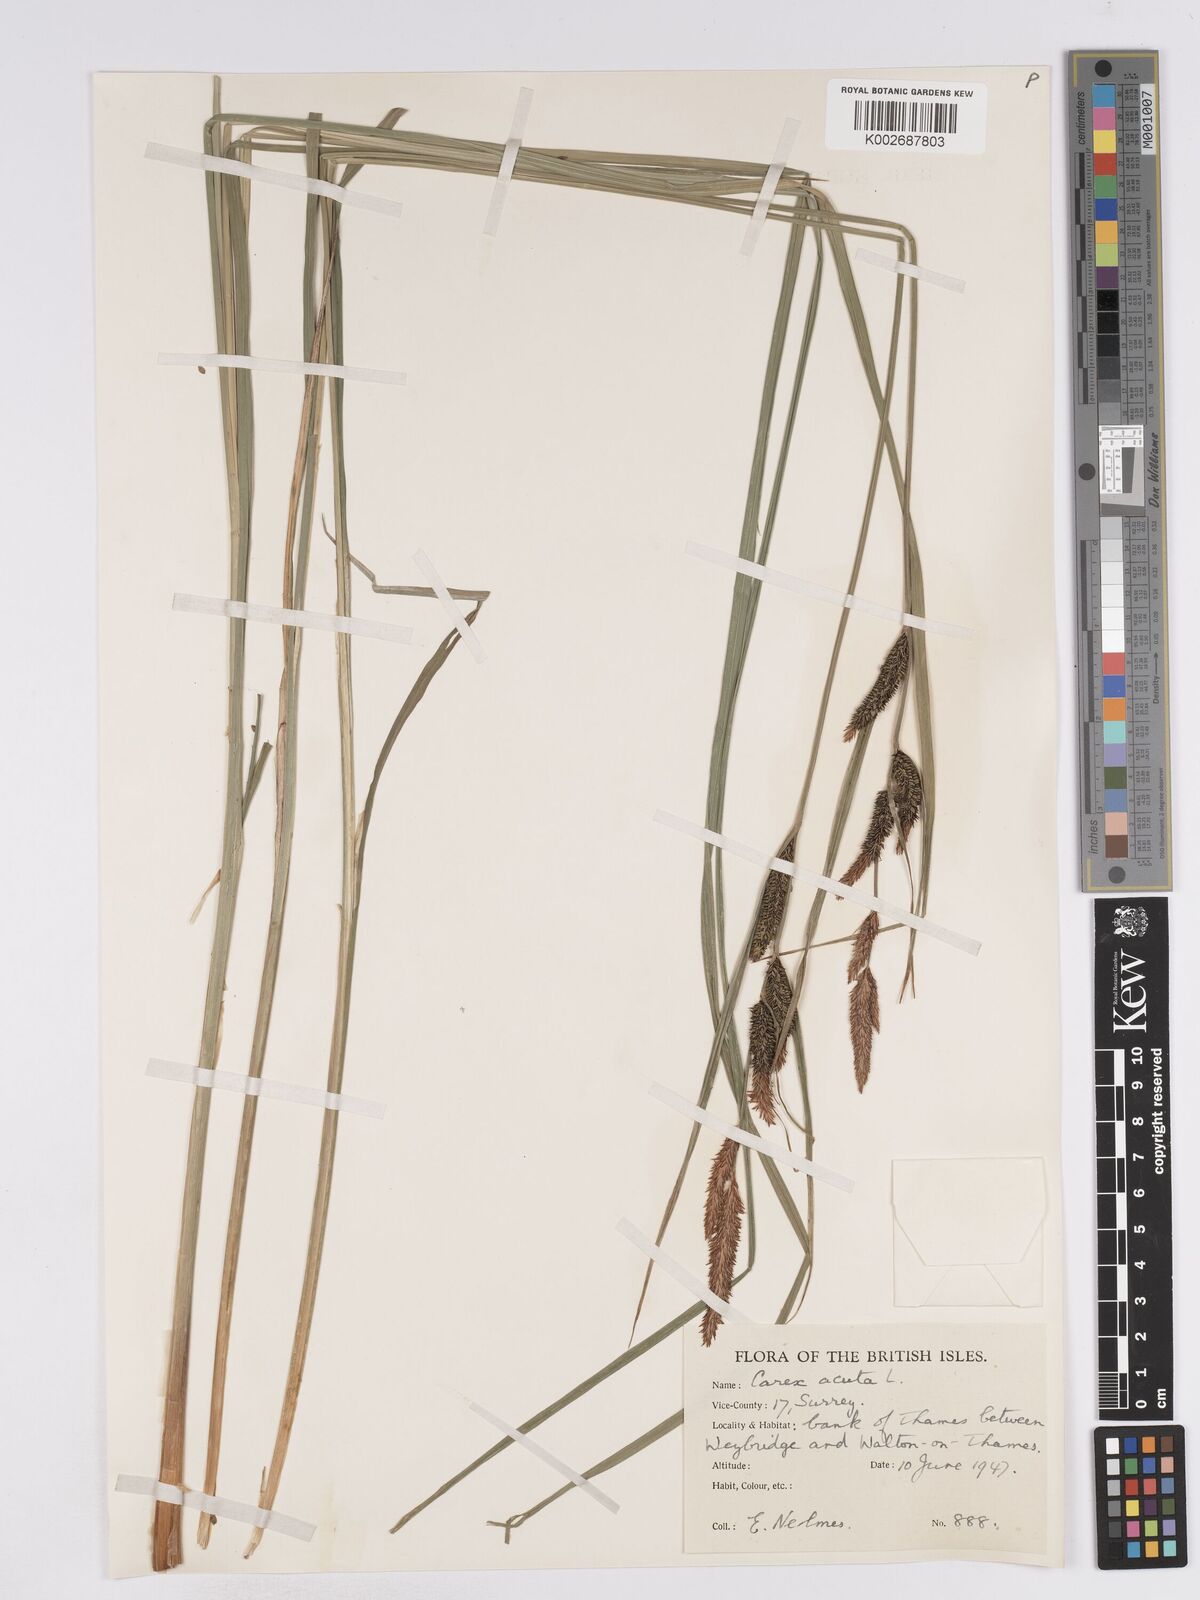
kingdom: Plantae
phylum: Tracheophyta
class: Liliopsida
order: Poales
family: Cyperaceae
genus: Carex
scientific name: Carex acuta
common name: Slender tufted-sedge
